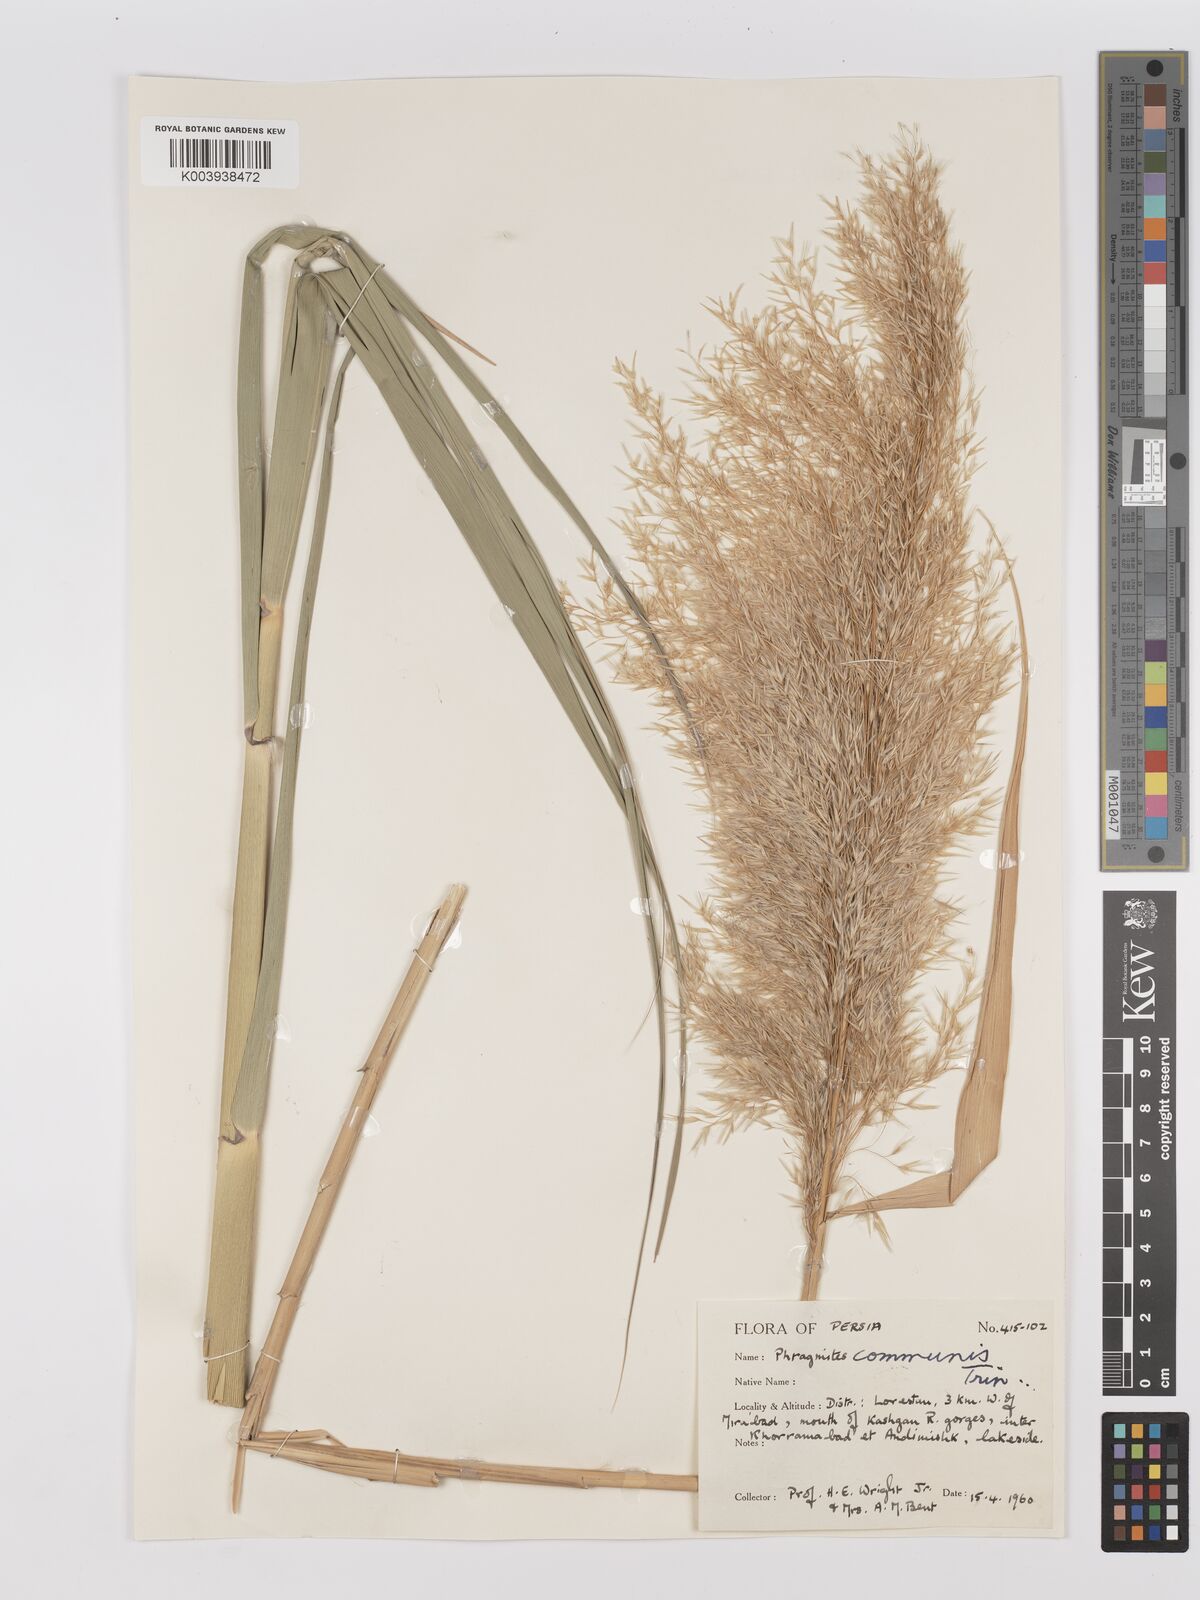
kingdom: Plantae
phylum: Tracheophyta
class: Liliopsida
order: Poales
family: Poaceae
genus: Phragmites
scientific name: Phragmites australis
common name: Common reed
